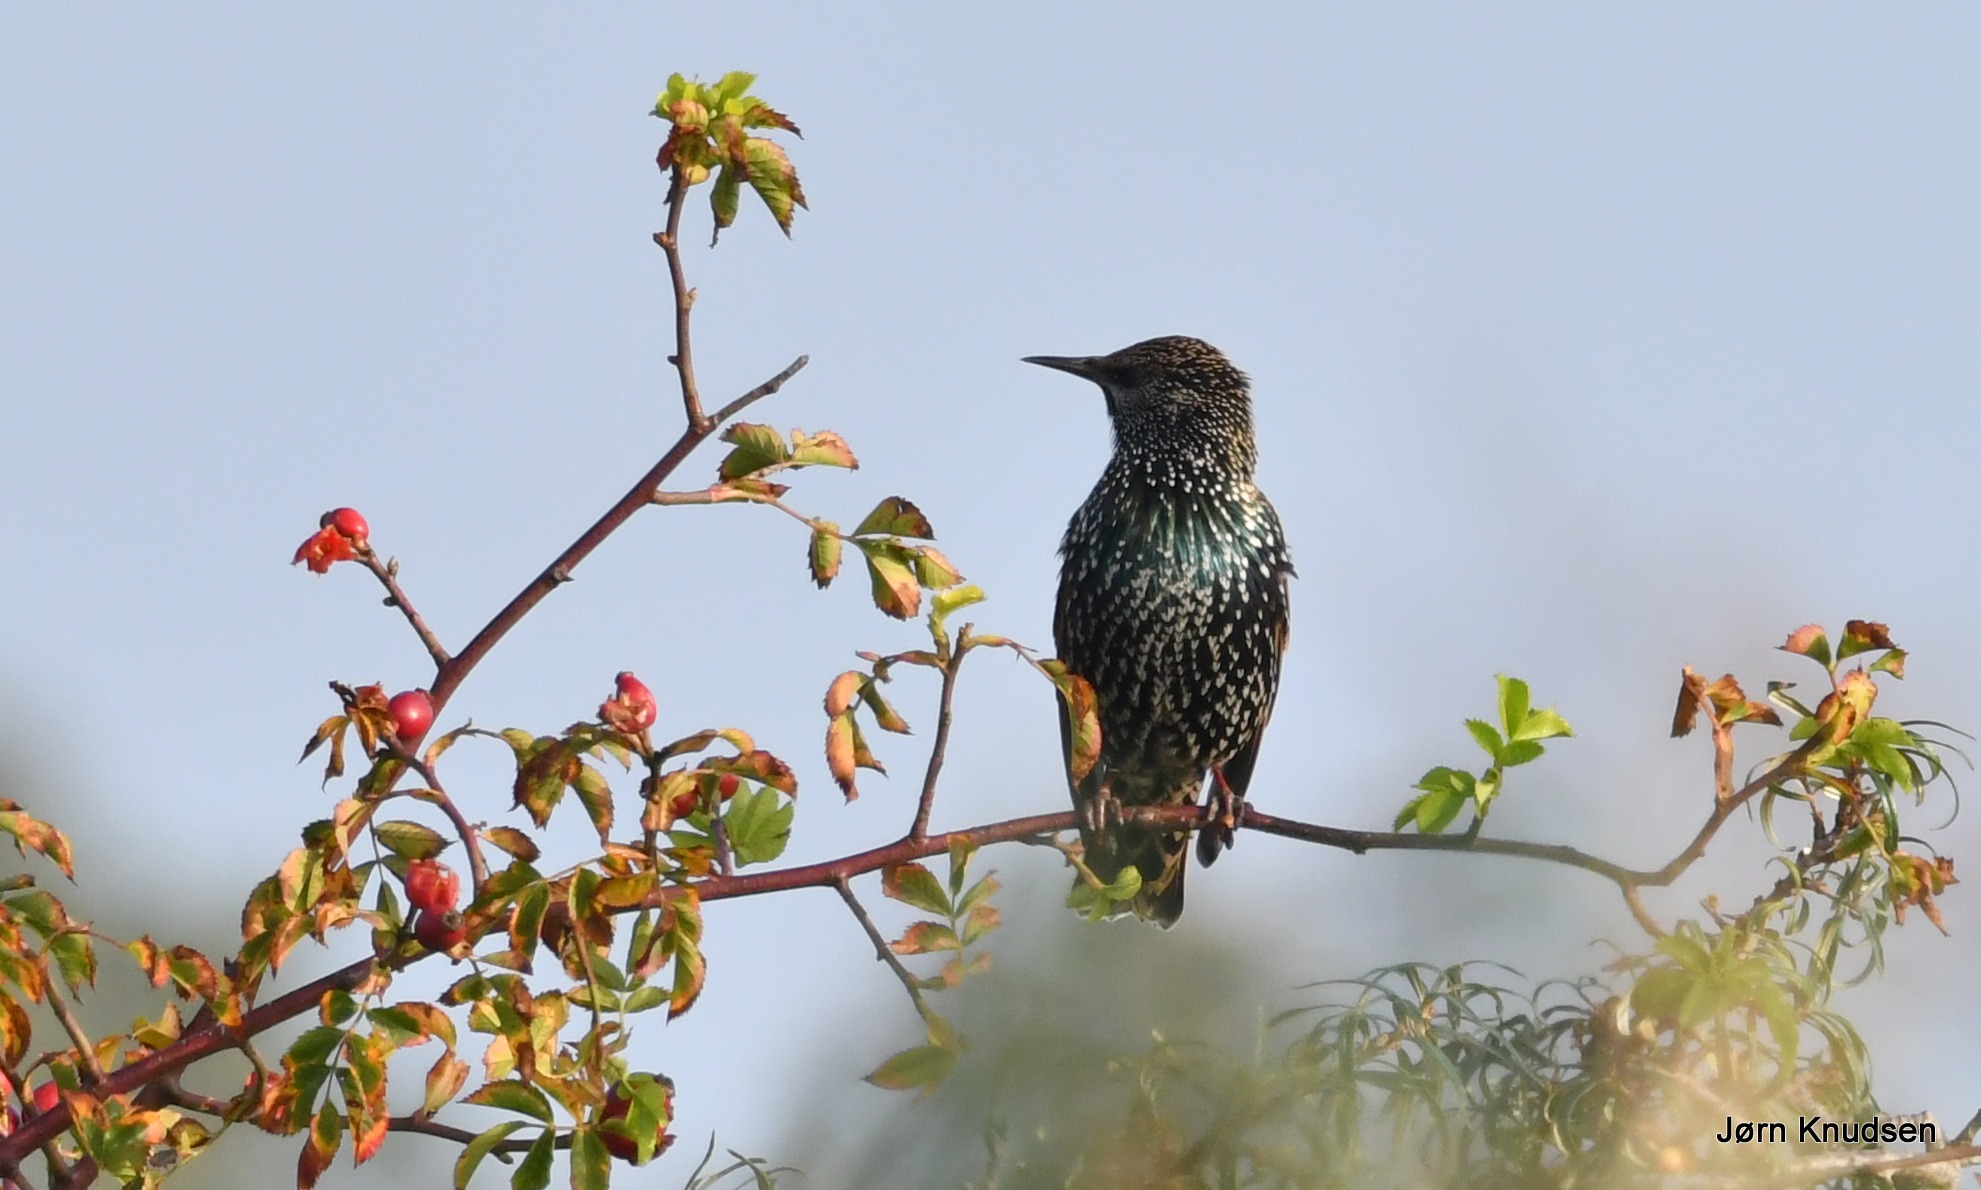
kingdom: Animalia
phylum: Chordata
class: Aves
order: Passeriformes
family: Sturnidae
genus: Sturnus
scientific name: Sturnus vulgaris
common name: Stær
